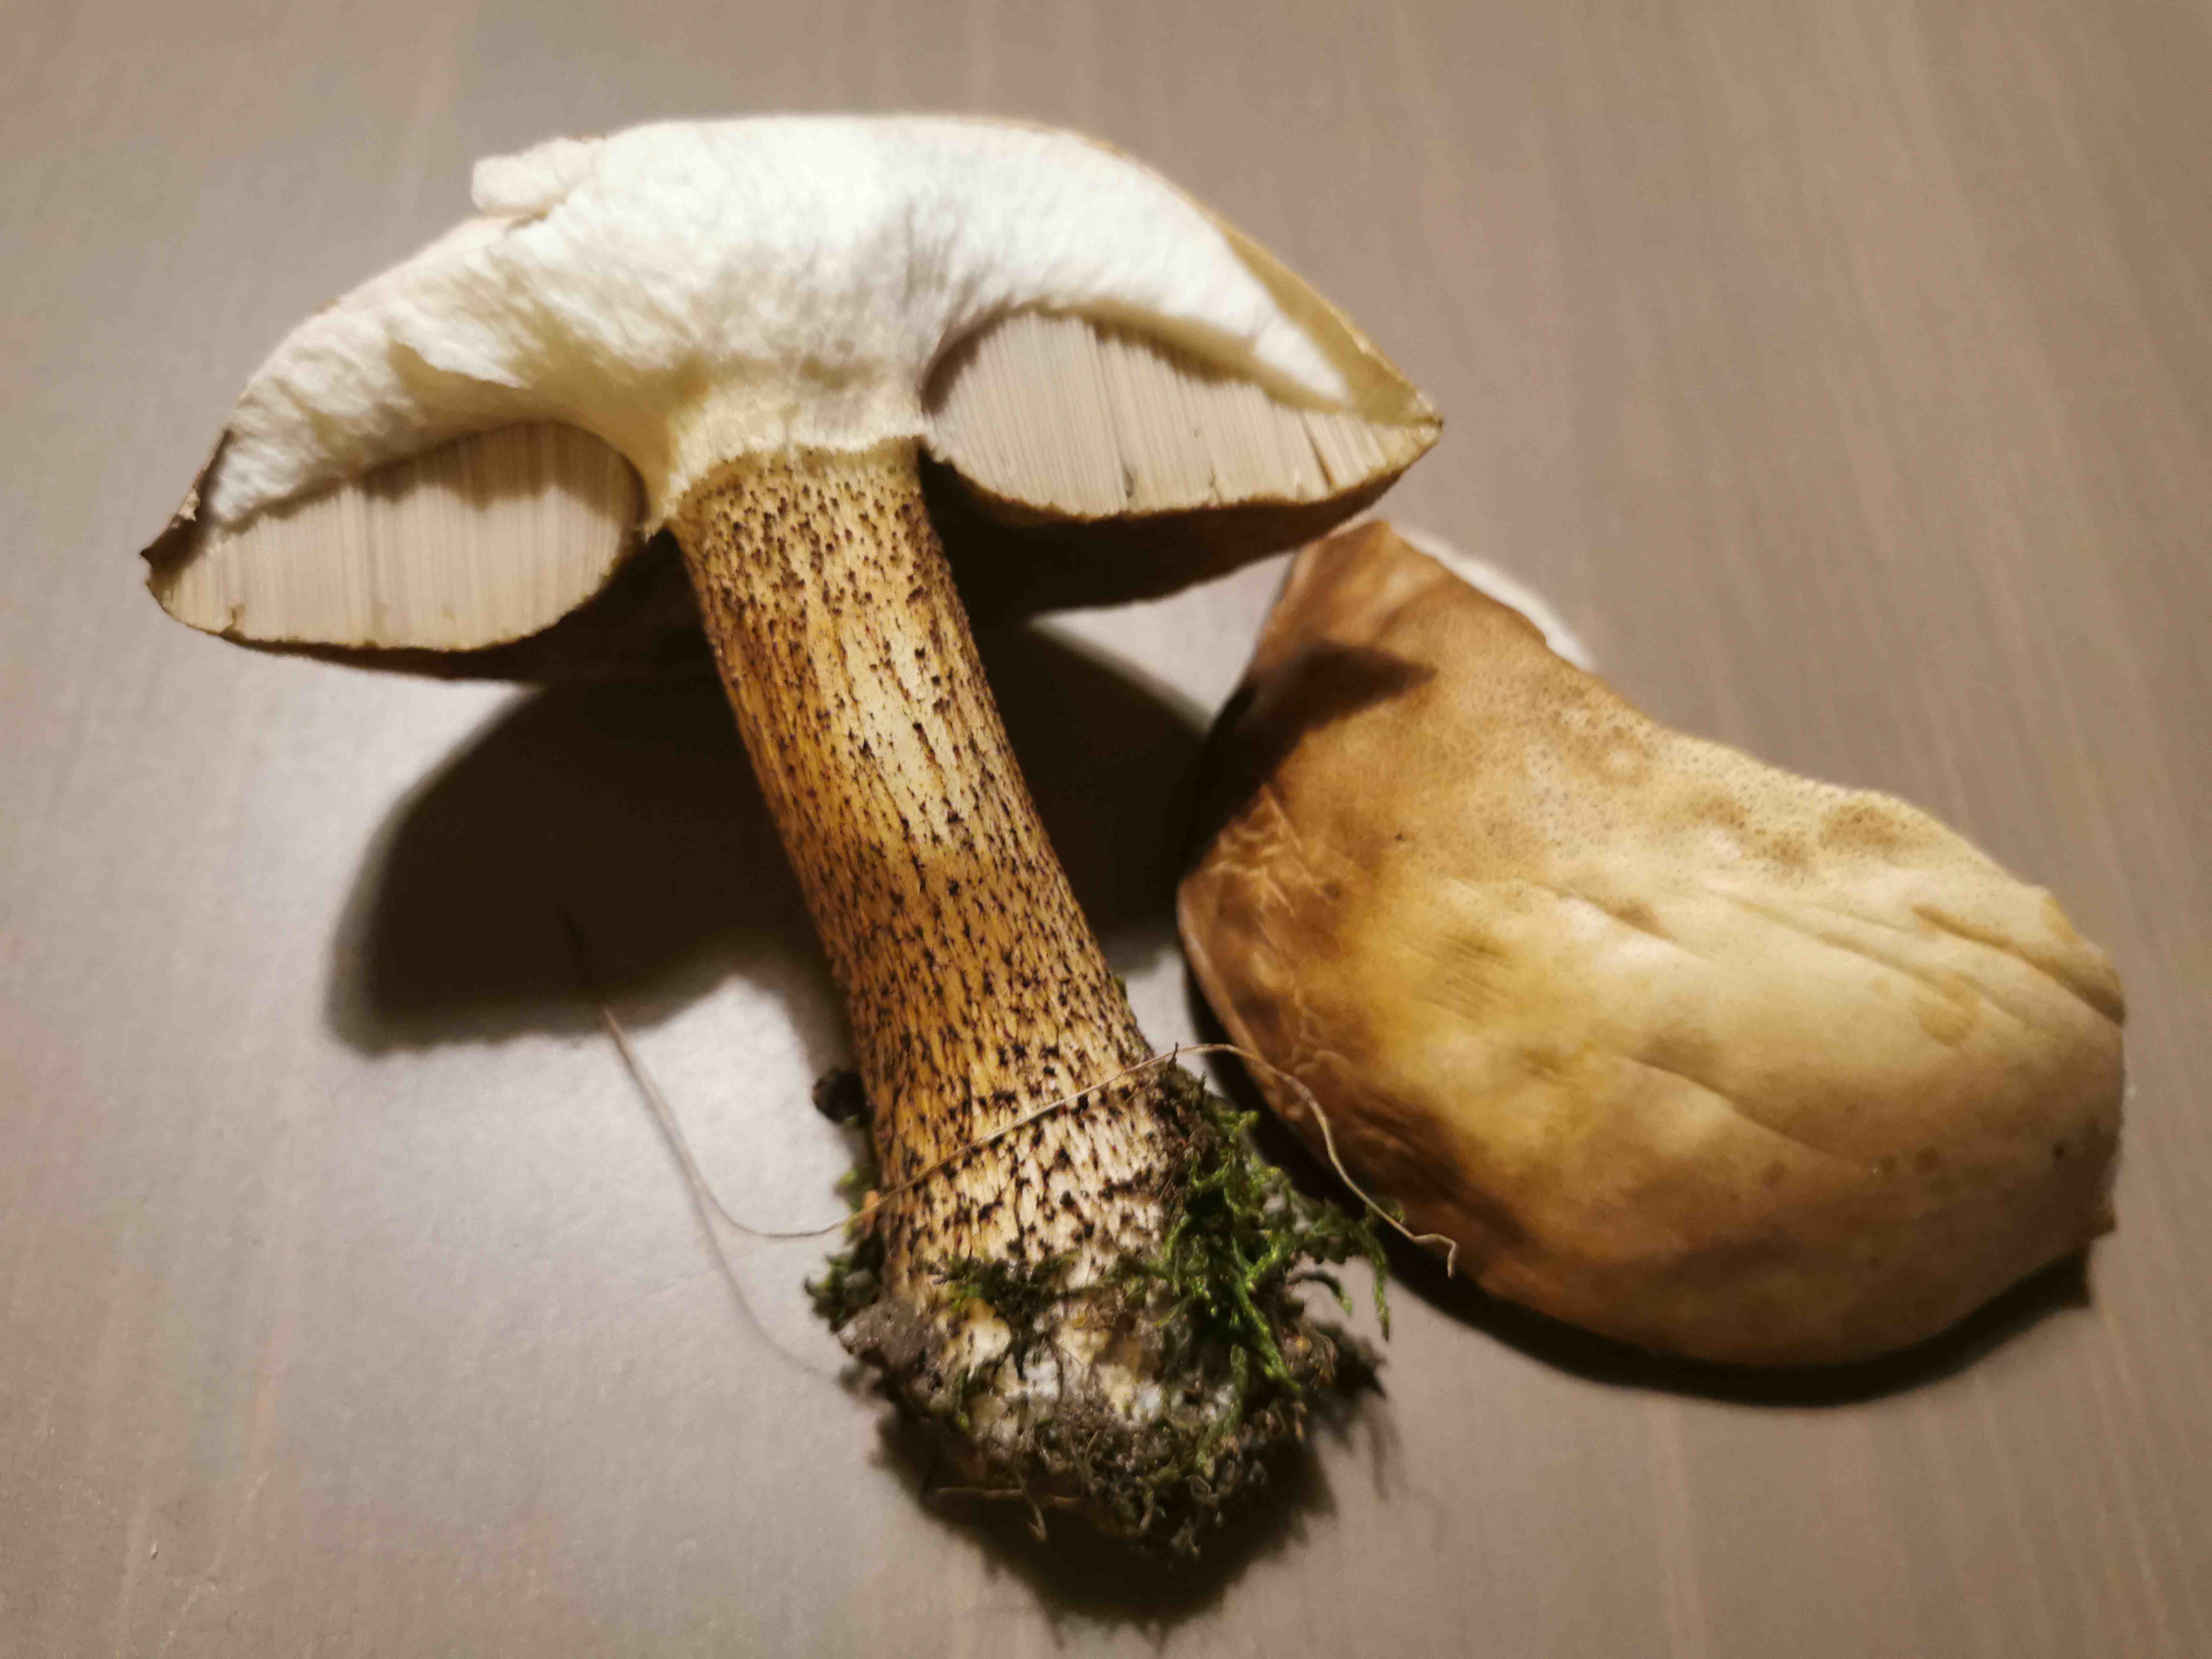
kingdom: Fungi
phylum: Basidiomycota
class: Agaricomycetes
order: Boletales
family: Boletaceae
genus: Leccinum
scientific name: Leccinum
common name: skælrørhat
